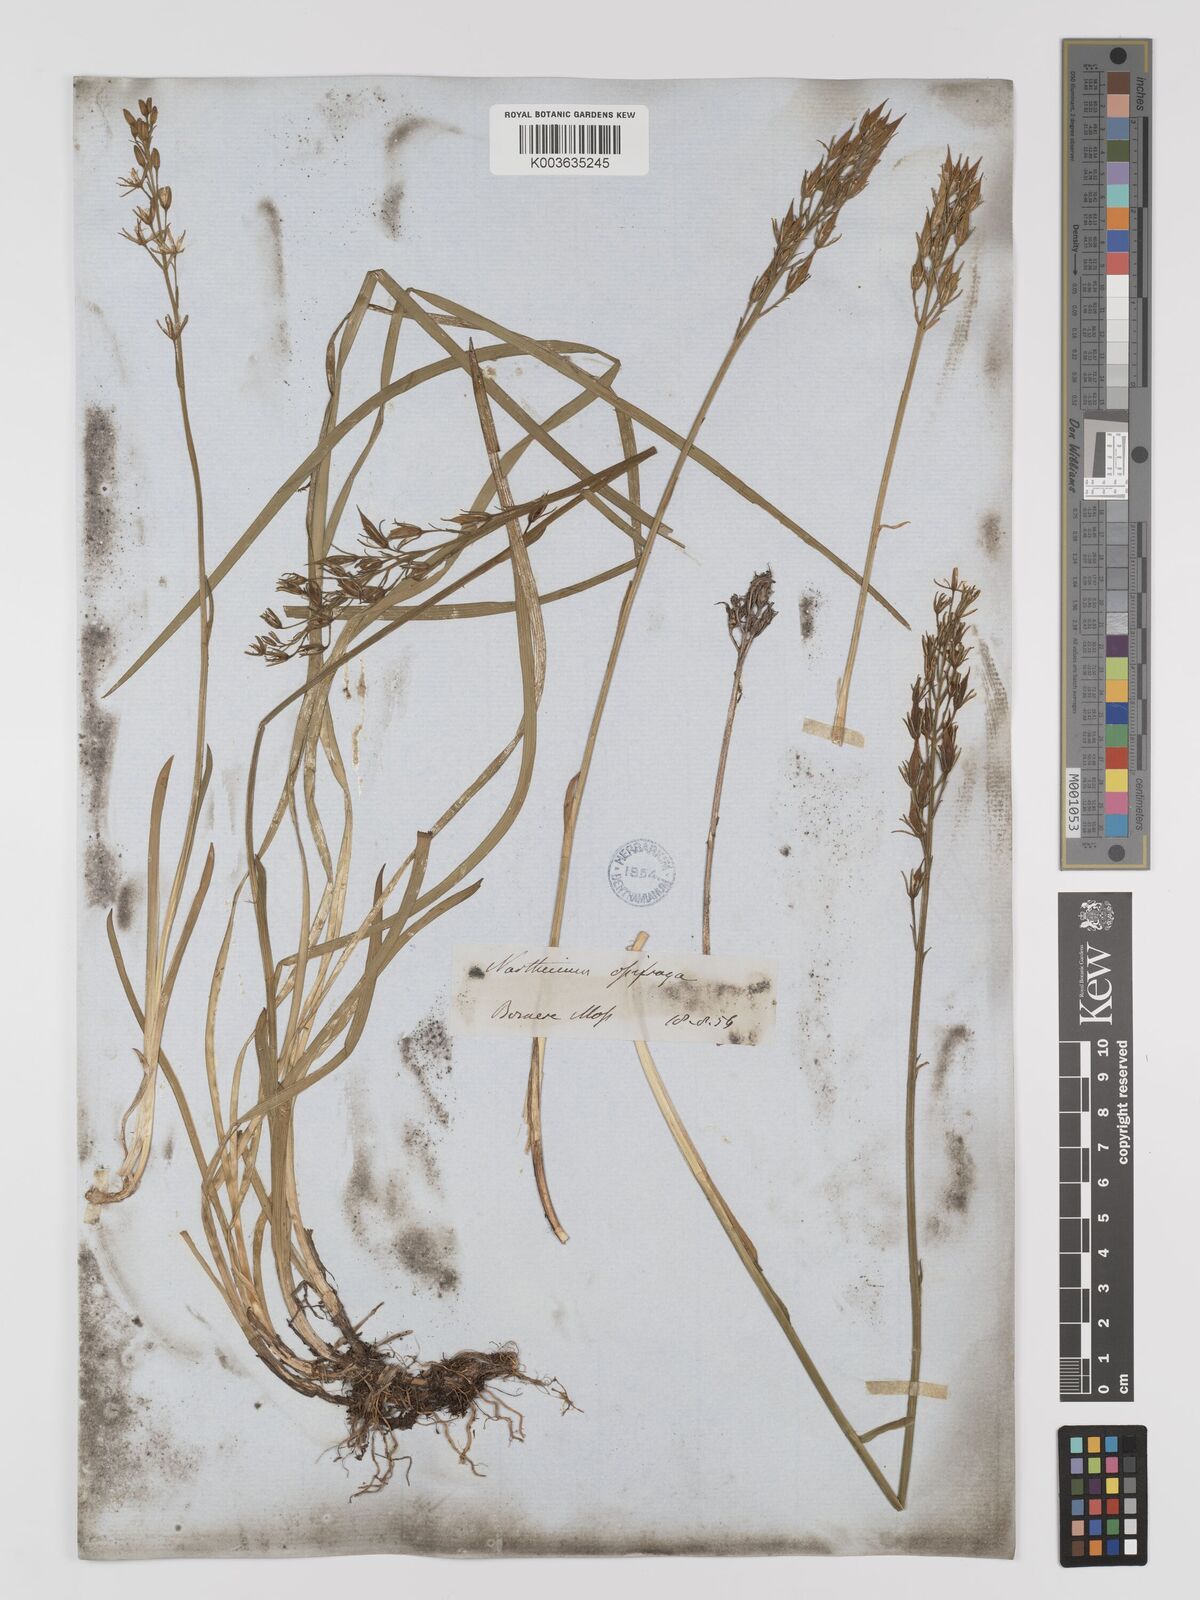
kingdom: Plantae
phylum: Tracheophyta
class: Liliopsida
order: Dioscoreales
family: Nartheciaceae
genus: Narthecium
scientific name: Narthecium
